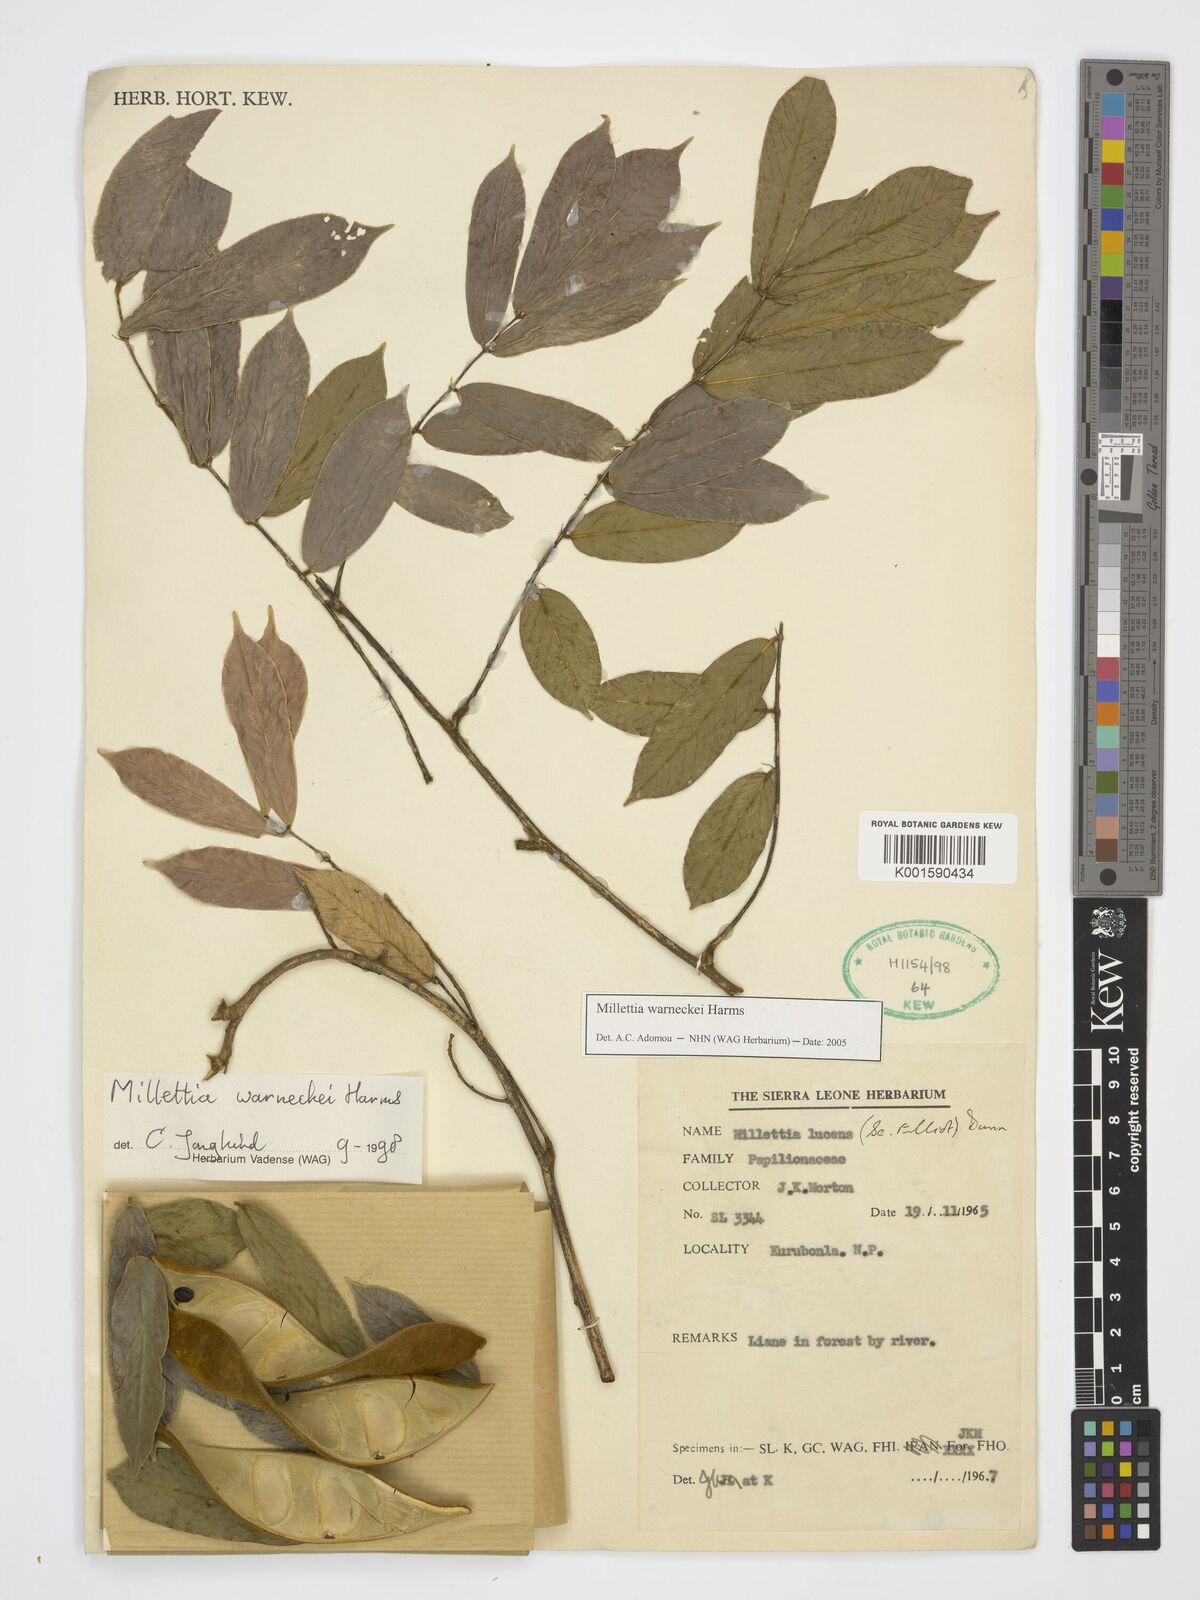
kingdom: Plantae
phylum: Tracheophyta
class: Magnoliopsida
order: Fabales
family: Fabaceae
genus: Millettia
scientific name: Millettia warneckei
